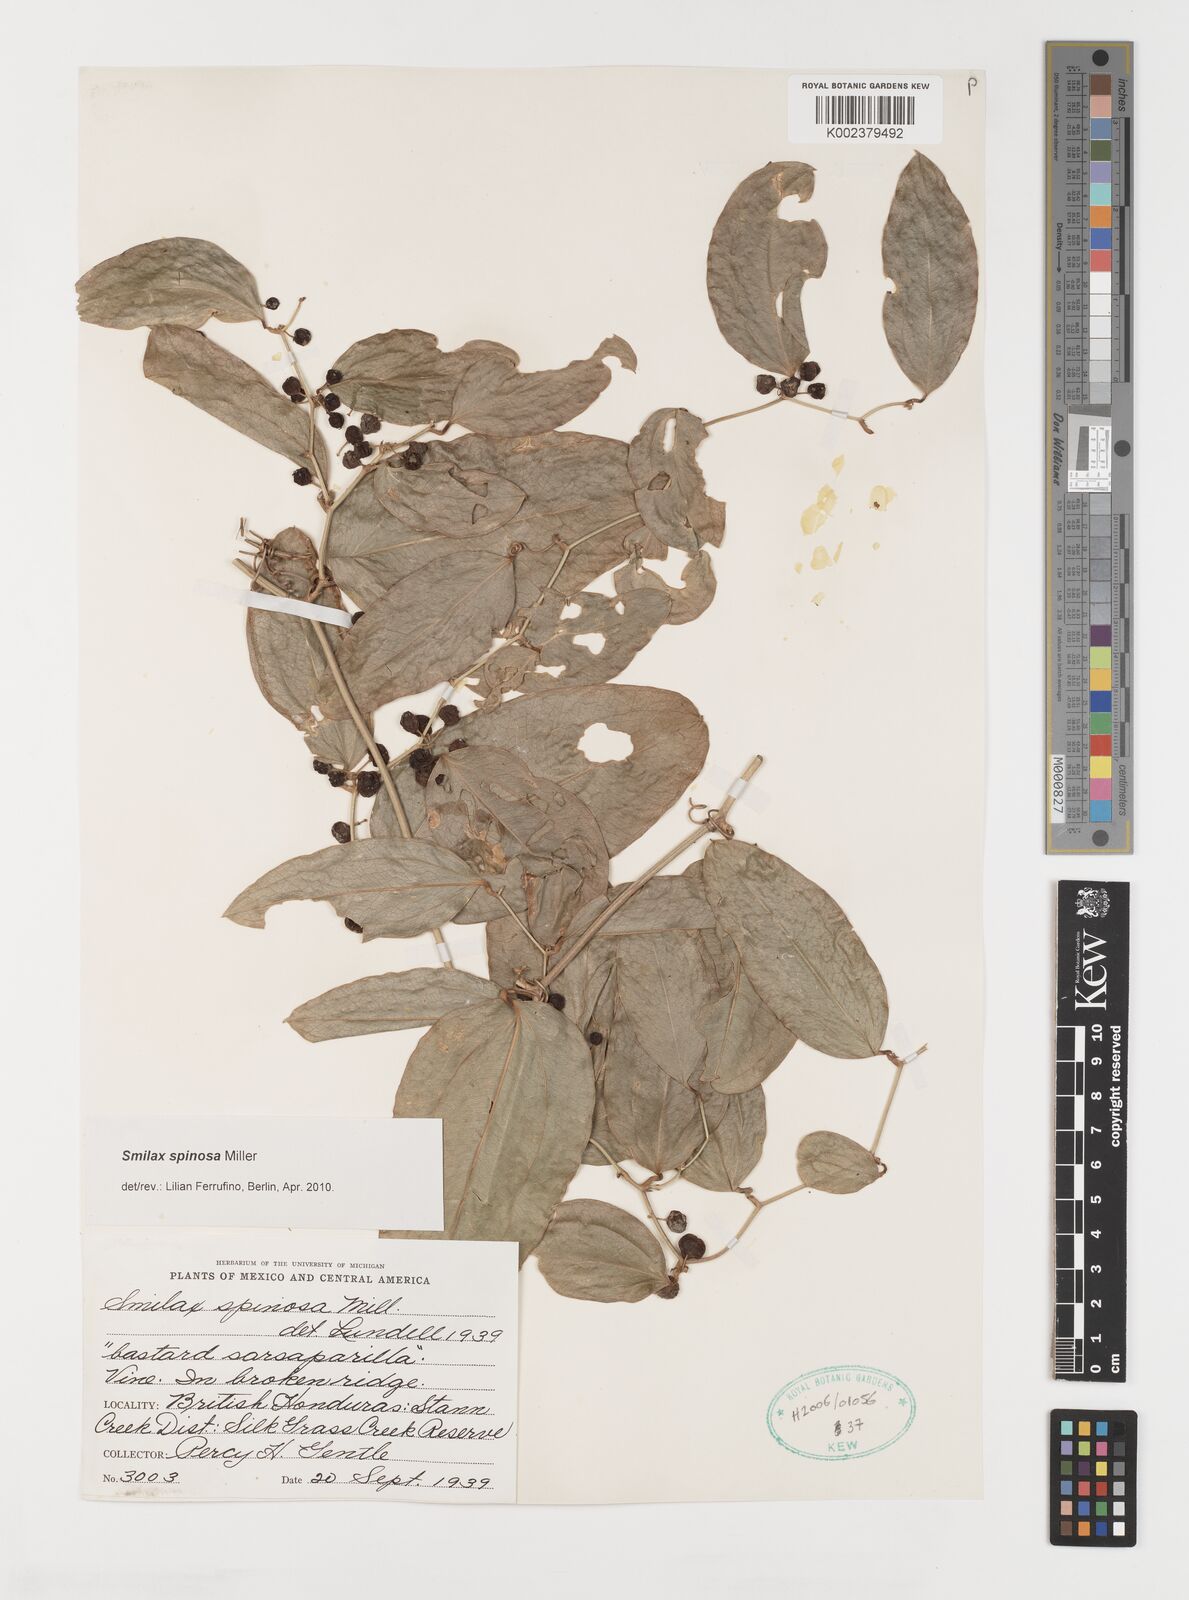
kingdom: Plantae
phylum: Tracheophyta
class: Liliopsida
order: Liliales
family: Smilacaceae
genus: Smilax
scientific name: Smilax spinosa
